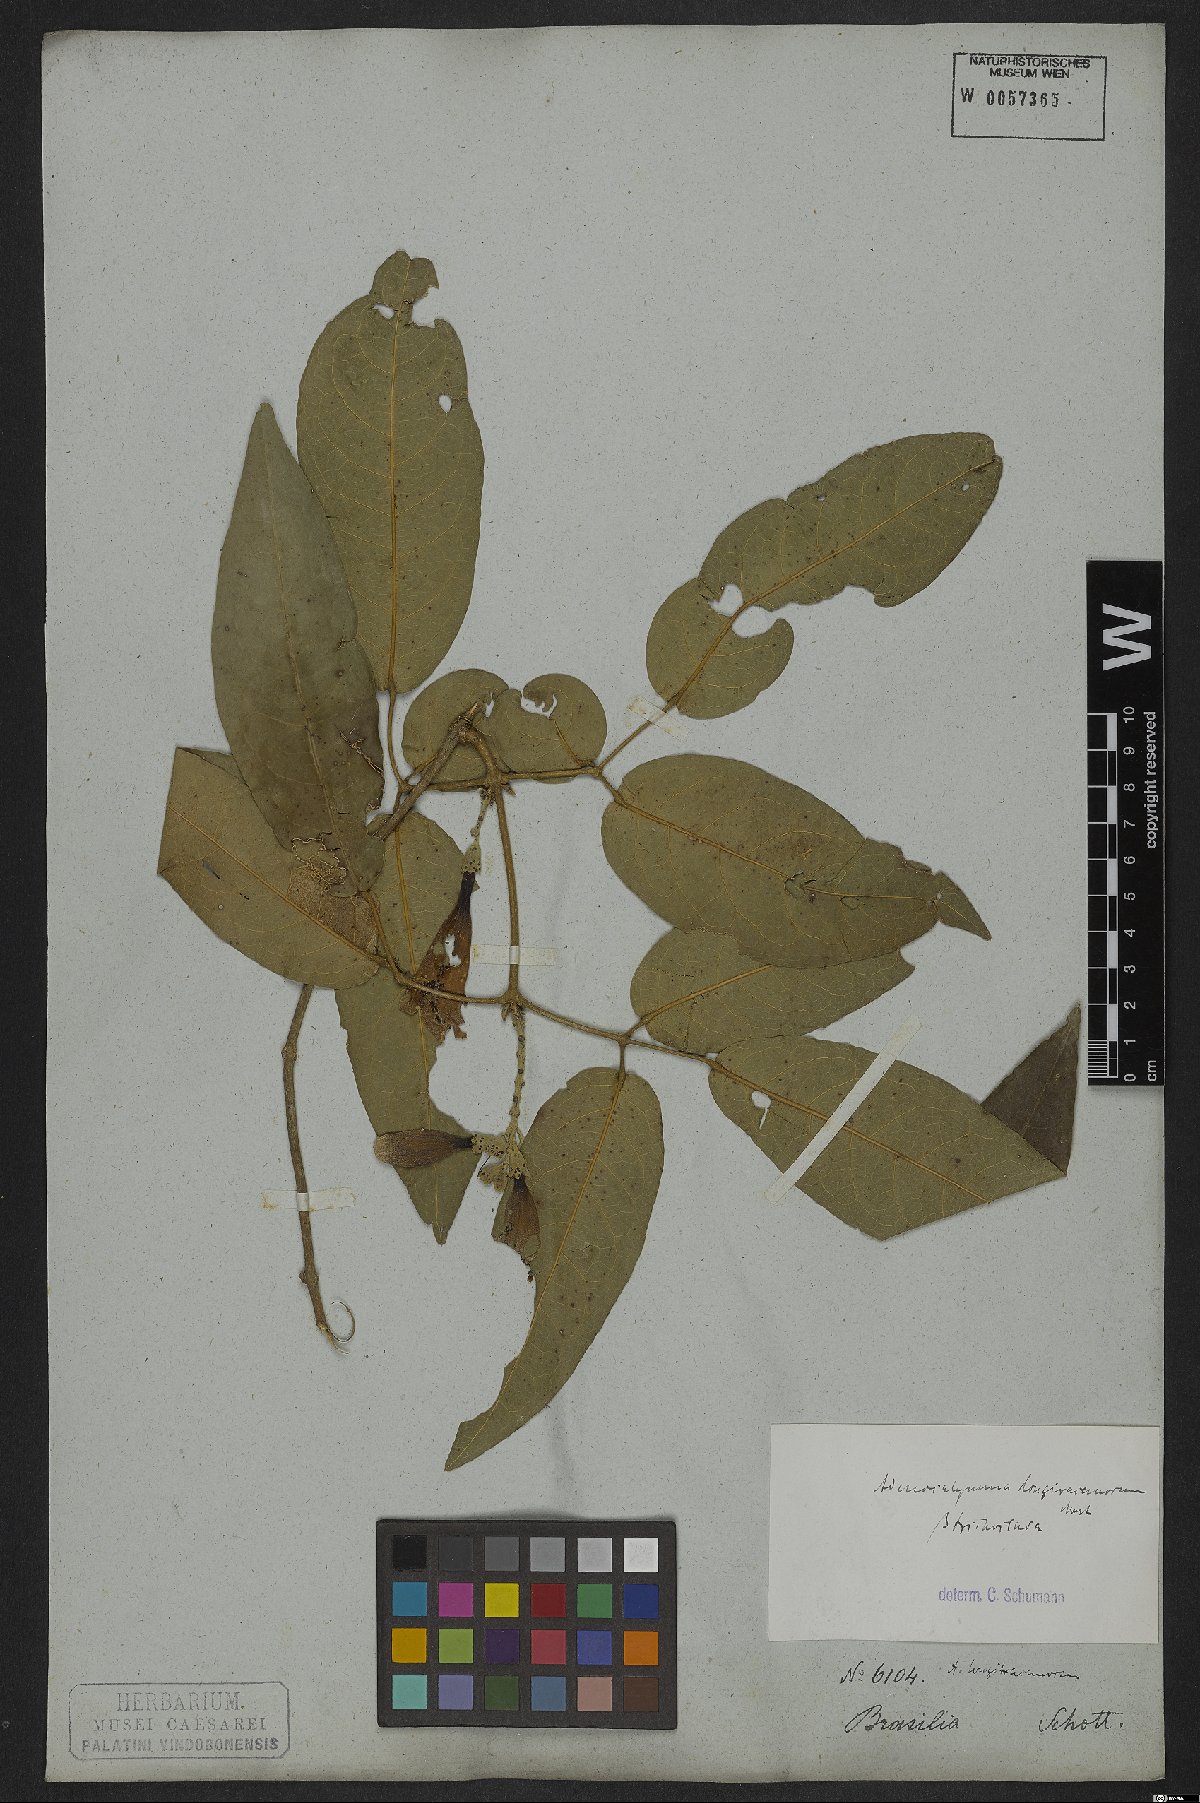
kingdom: Plantae
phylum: Tracheophyta
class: Magnoliopsida
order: Lamiales
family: Bignoniaceae
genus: Adenocalymma
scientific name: Adenocalymma trifoliatum
